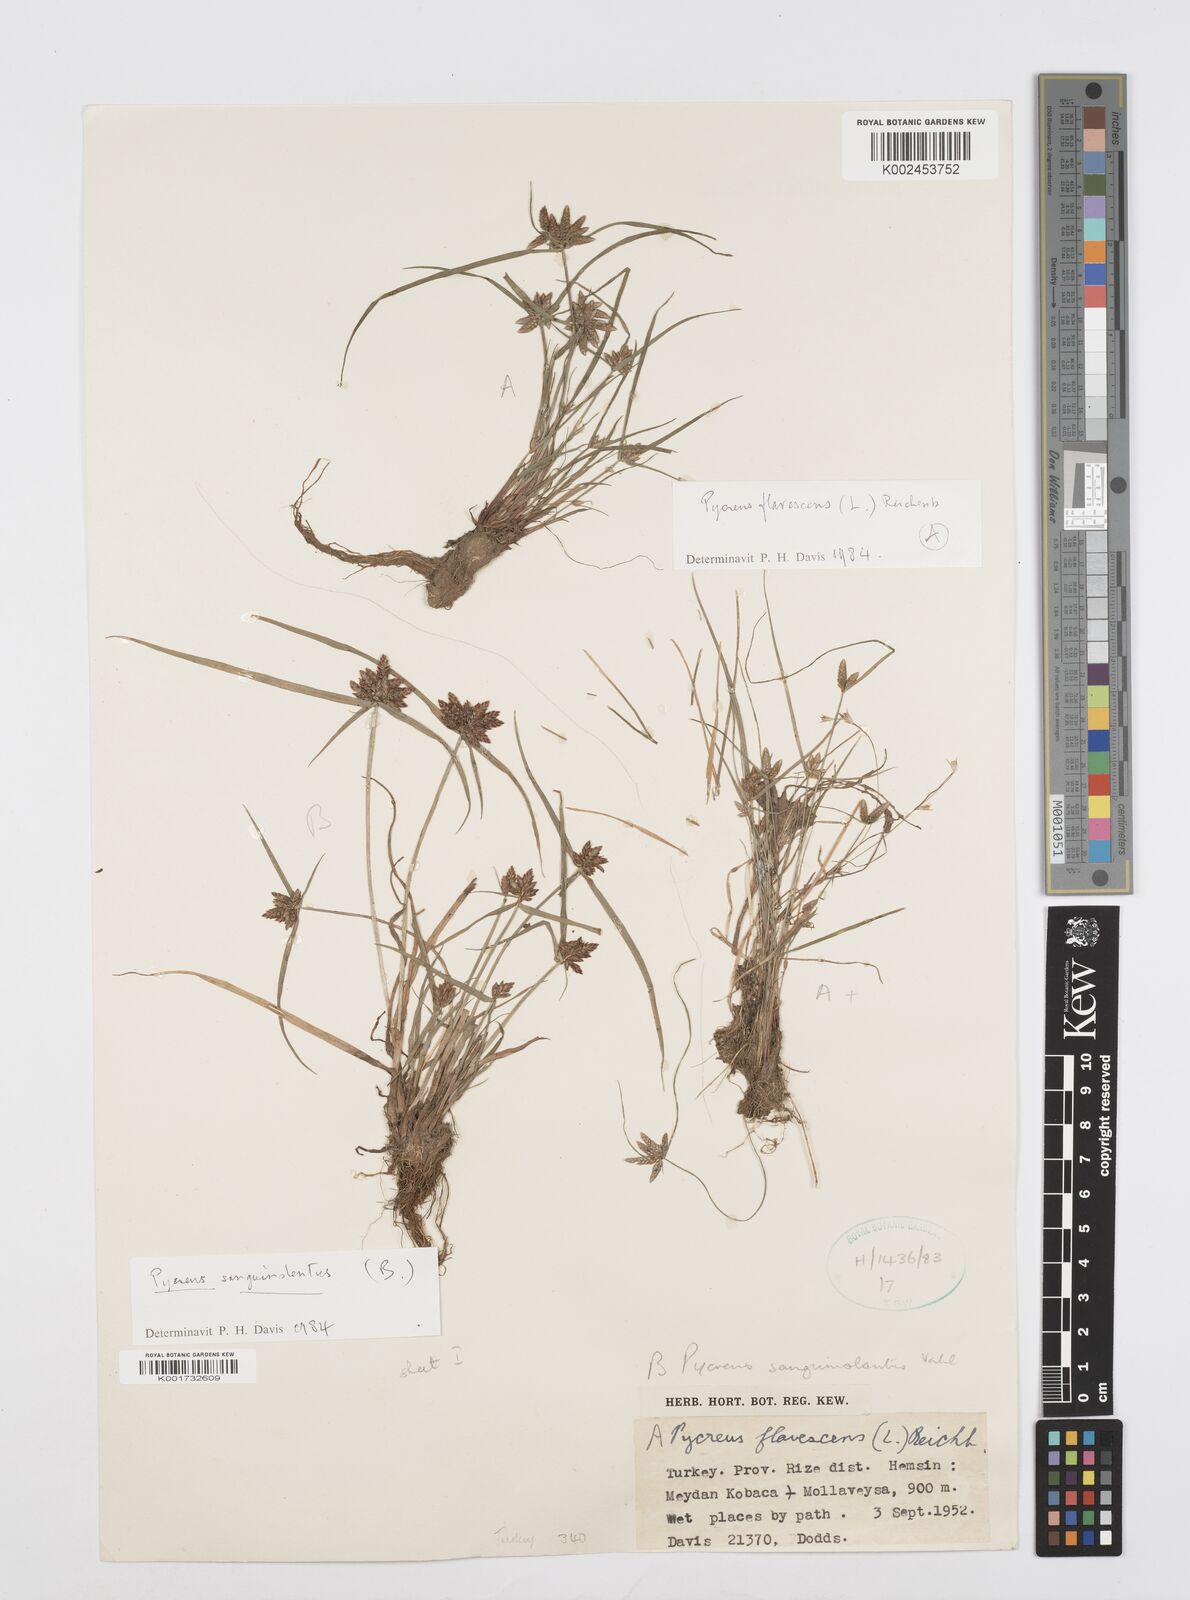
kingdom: Plantae
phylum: Tracheophyta
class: Liliopsida
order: Poales
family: Cyperaceae
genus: Cyperus
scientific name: Cyperus sanguinolentus
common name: Purpleglume flatsedge
